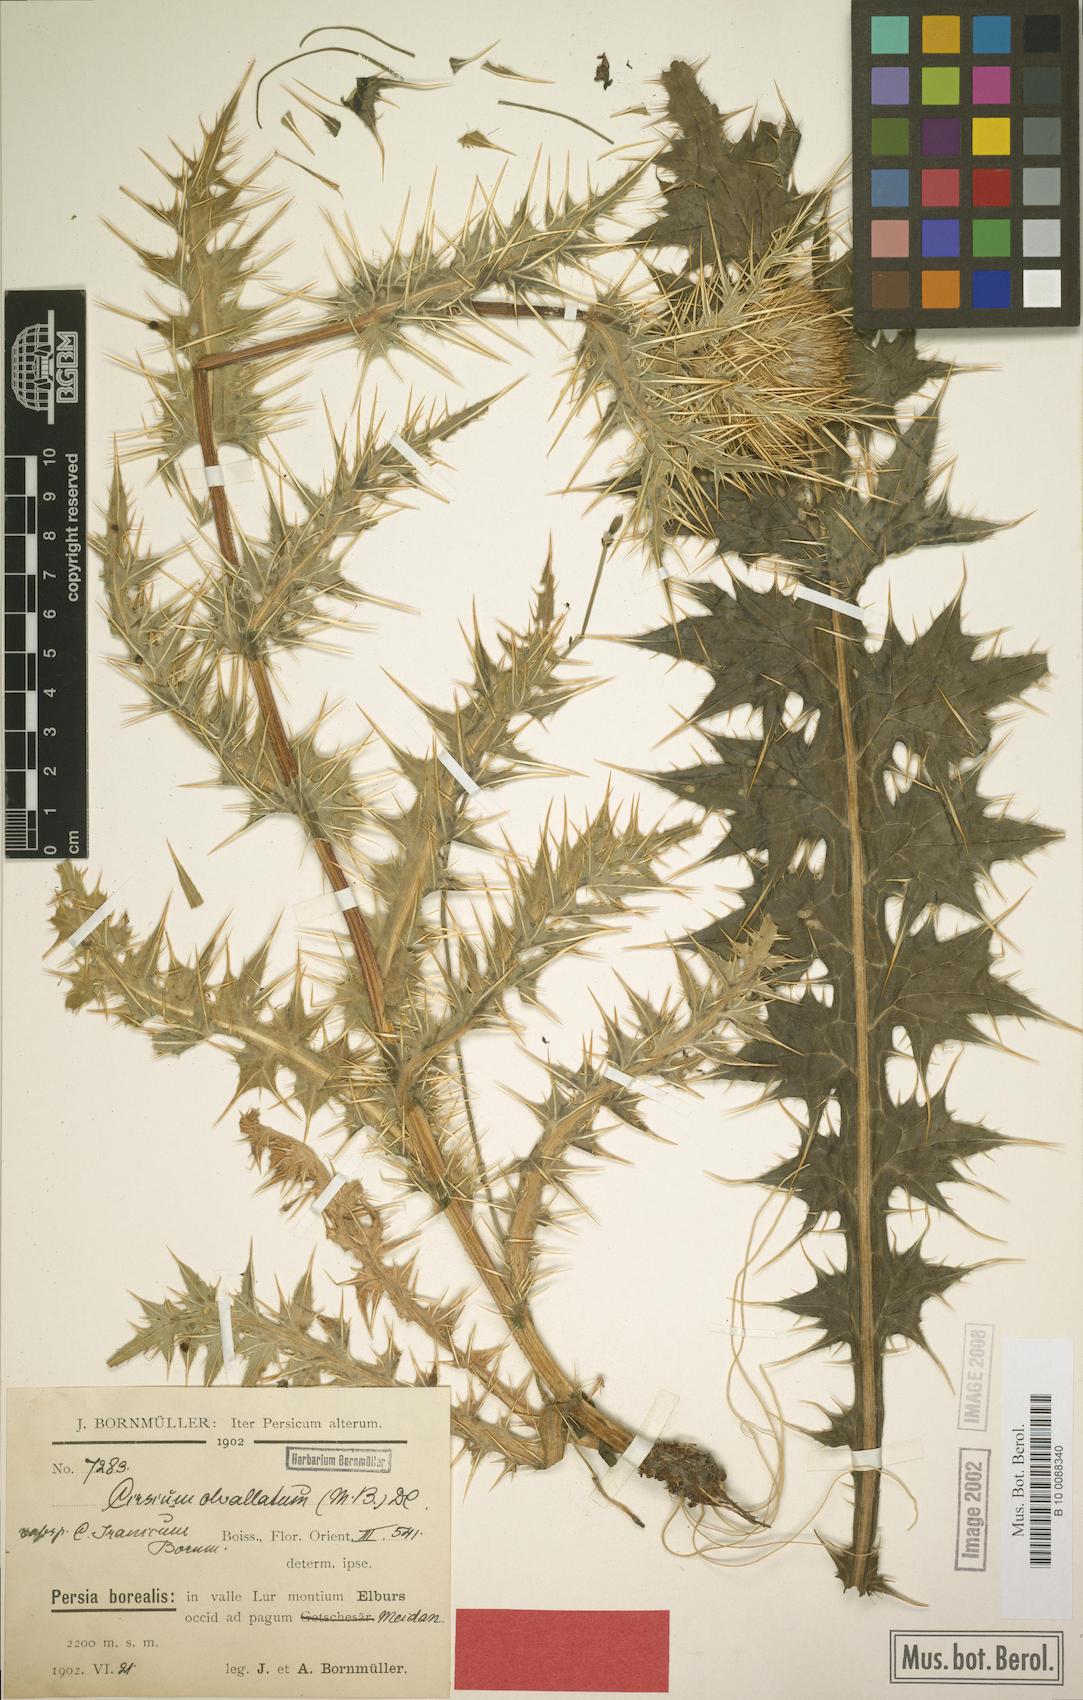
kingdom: Plantae
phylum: Tracheophyta
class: Magnoliopsida
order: Asterales
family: Asteraceae
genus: Cirsium
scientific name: Cirsium obvallatum
